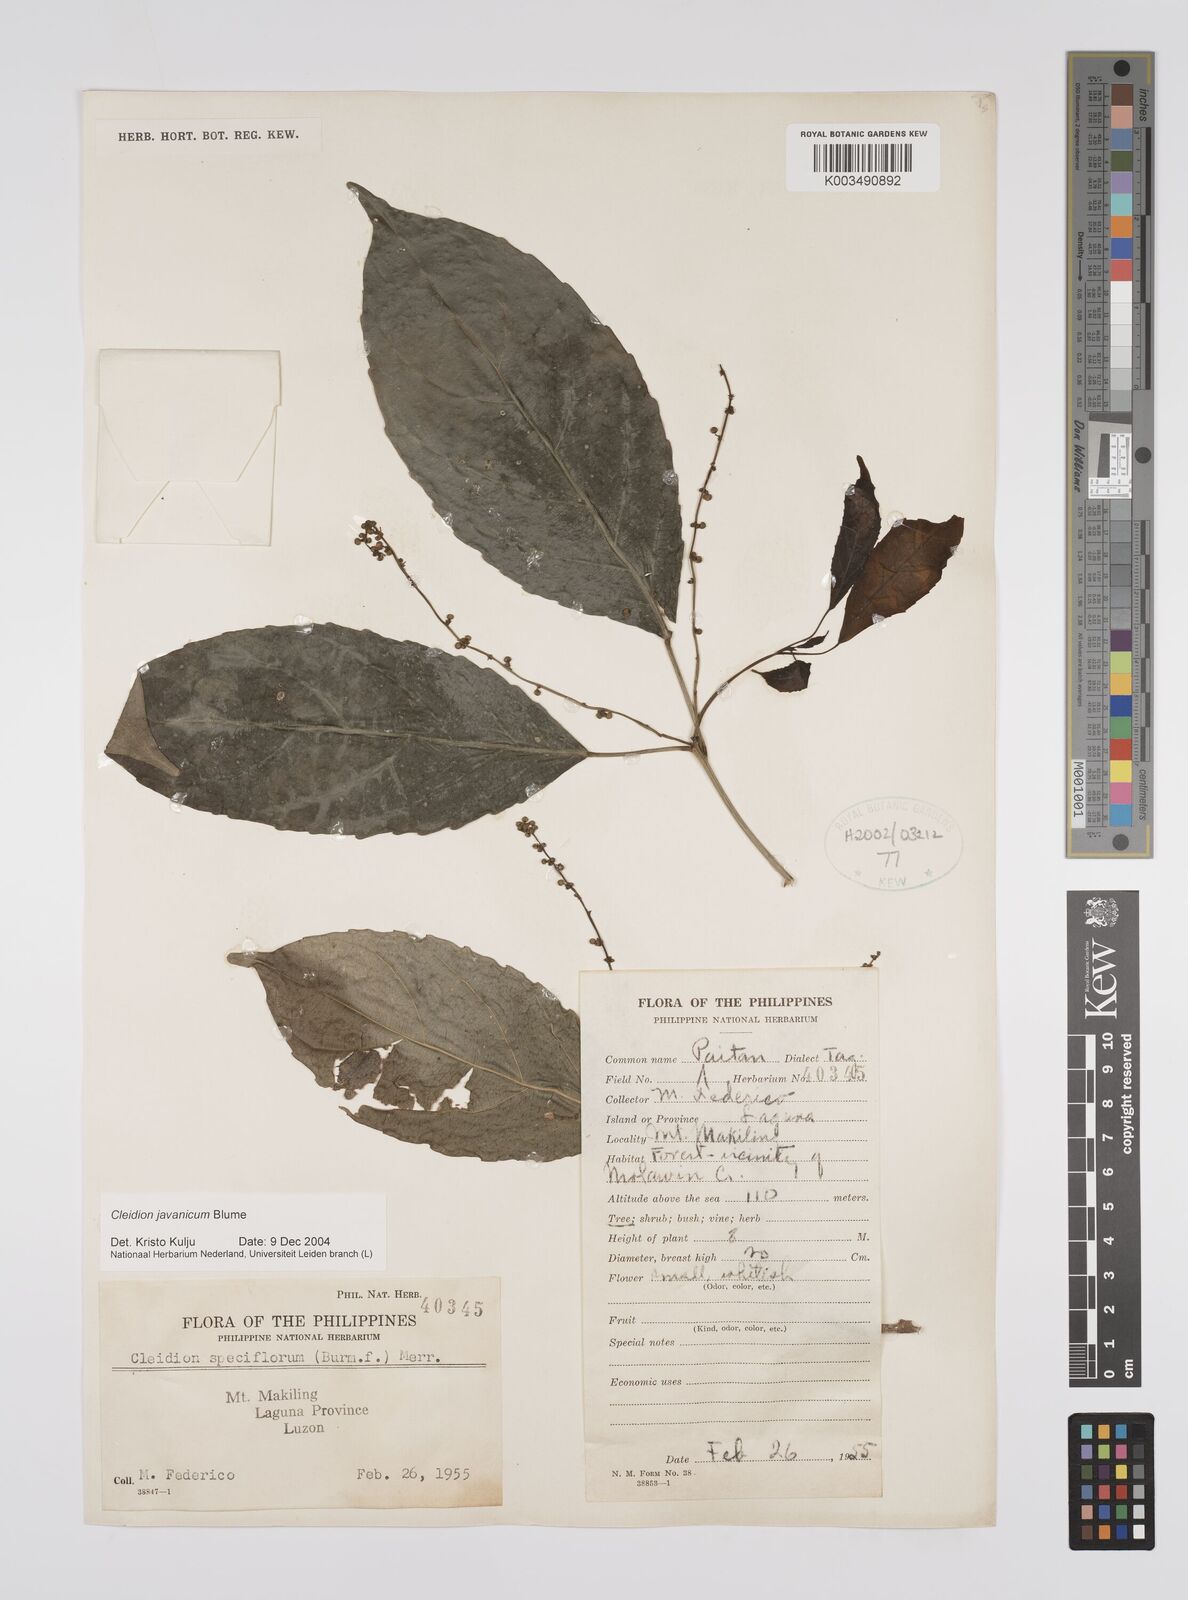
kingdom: Plantae
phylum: Tracheophyta
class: Magnoliopsida
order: Malpighiales
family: Euphorbiaceae
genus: Cleidion
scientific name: Cleidion javanicum
